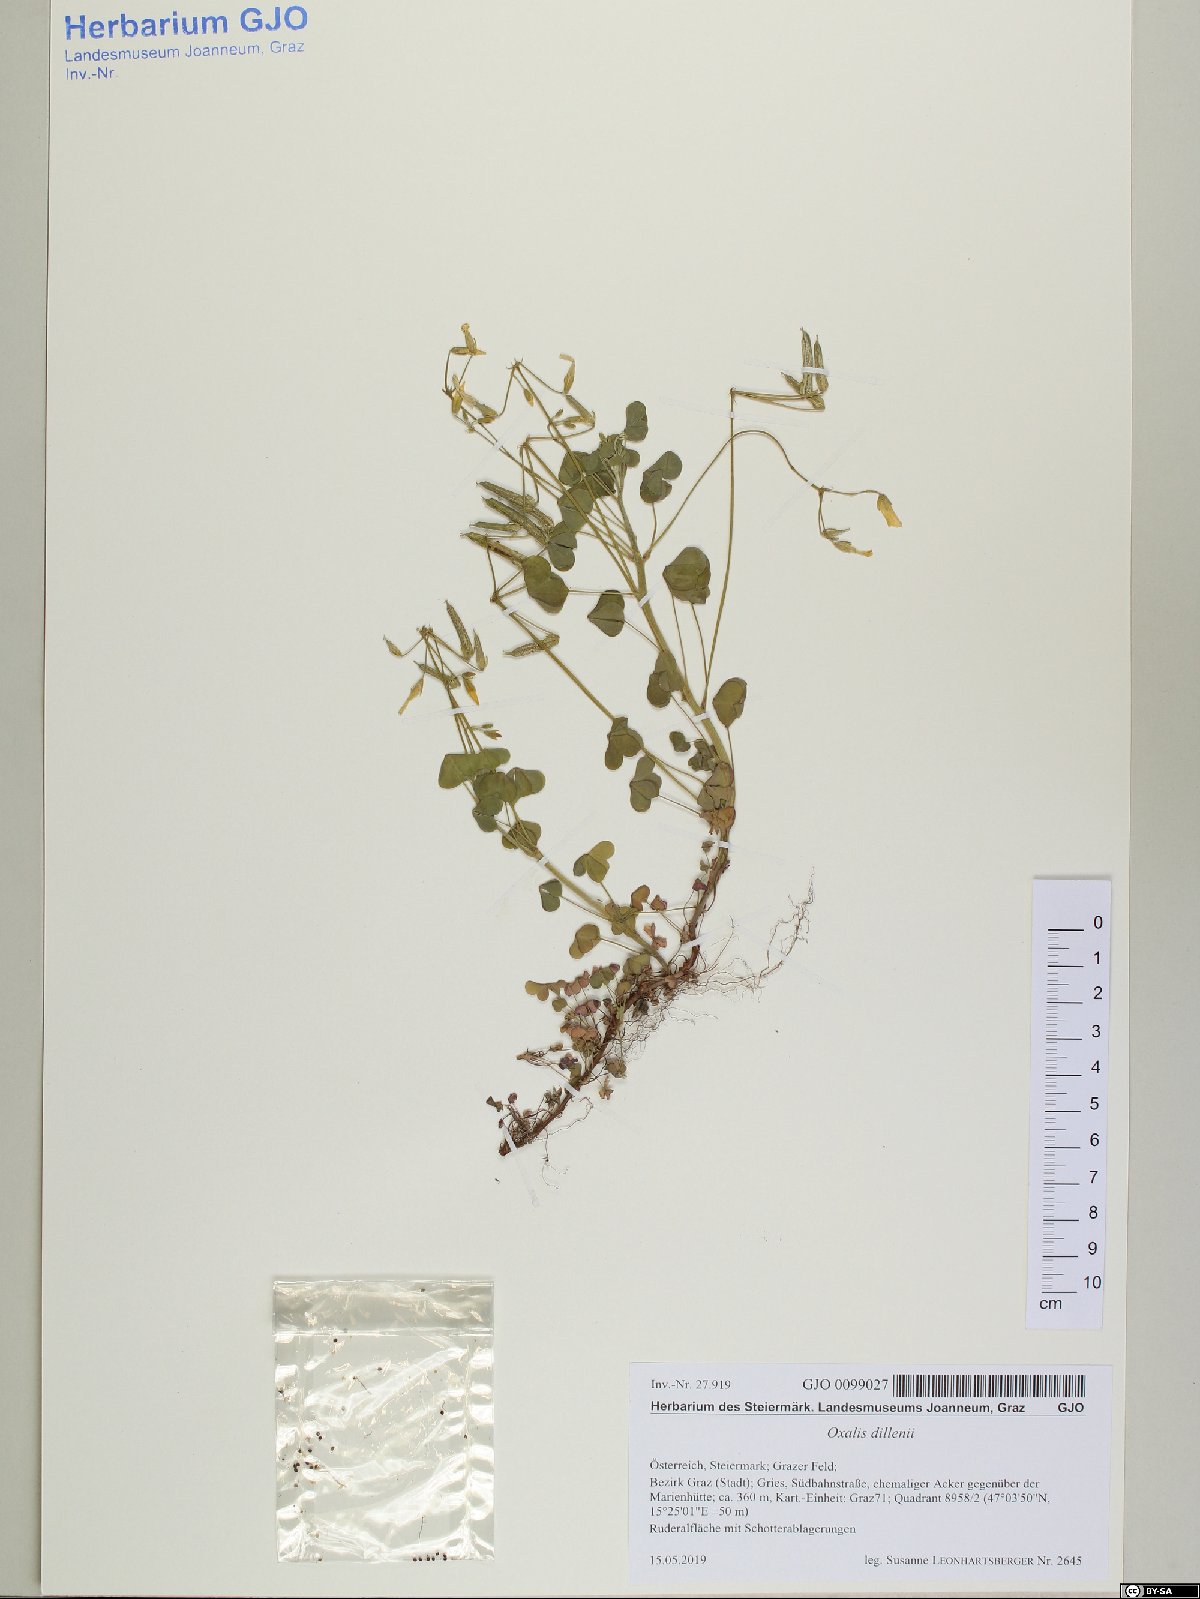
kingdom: Plantae
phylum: Tracheophyta
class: Magnoliopsida
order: Oxalidales
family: Oxalidaceae
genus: Oxalis
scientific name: Oxalis dillenii
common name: Sussex yellow-sorrel
